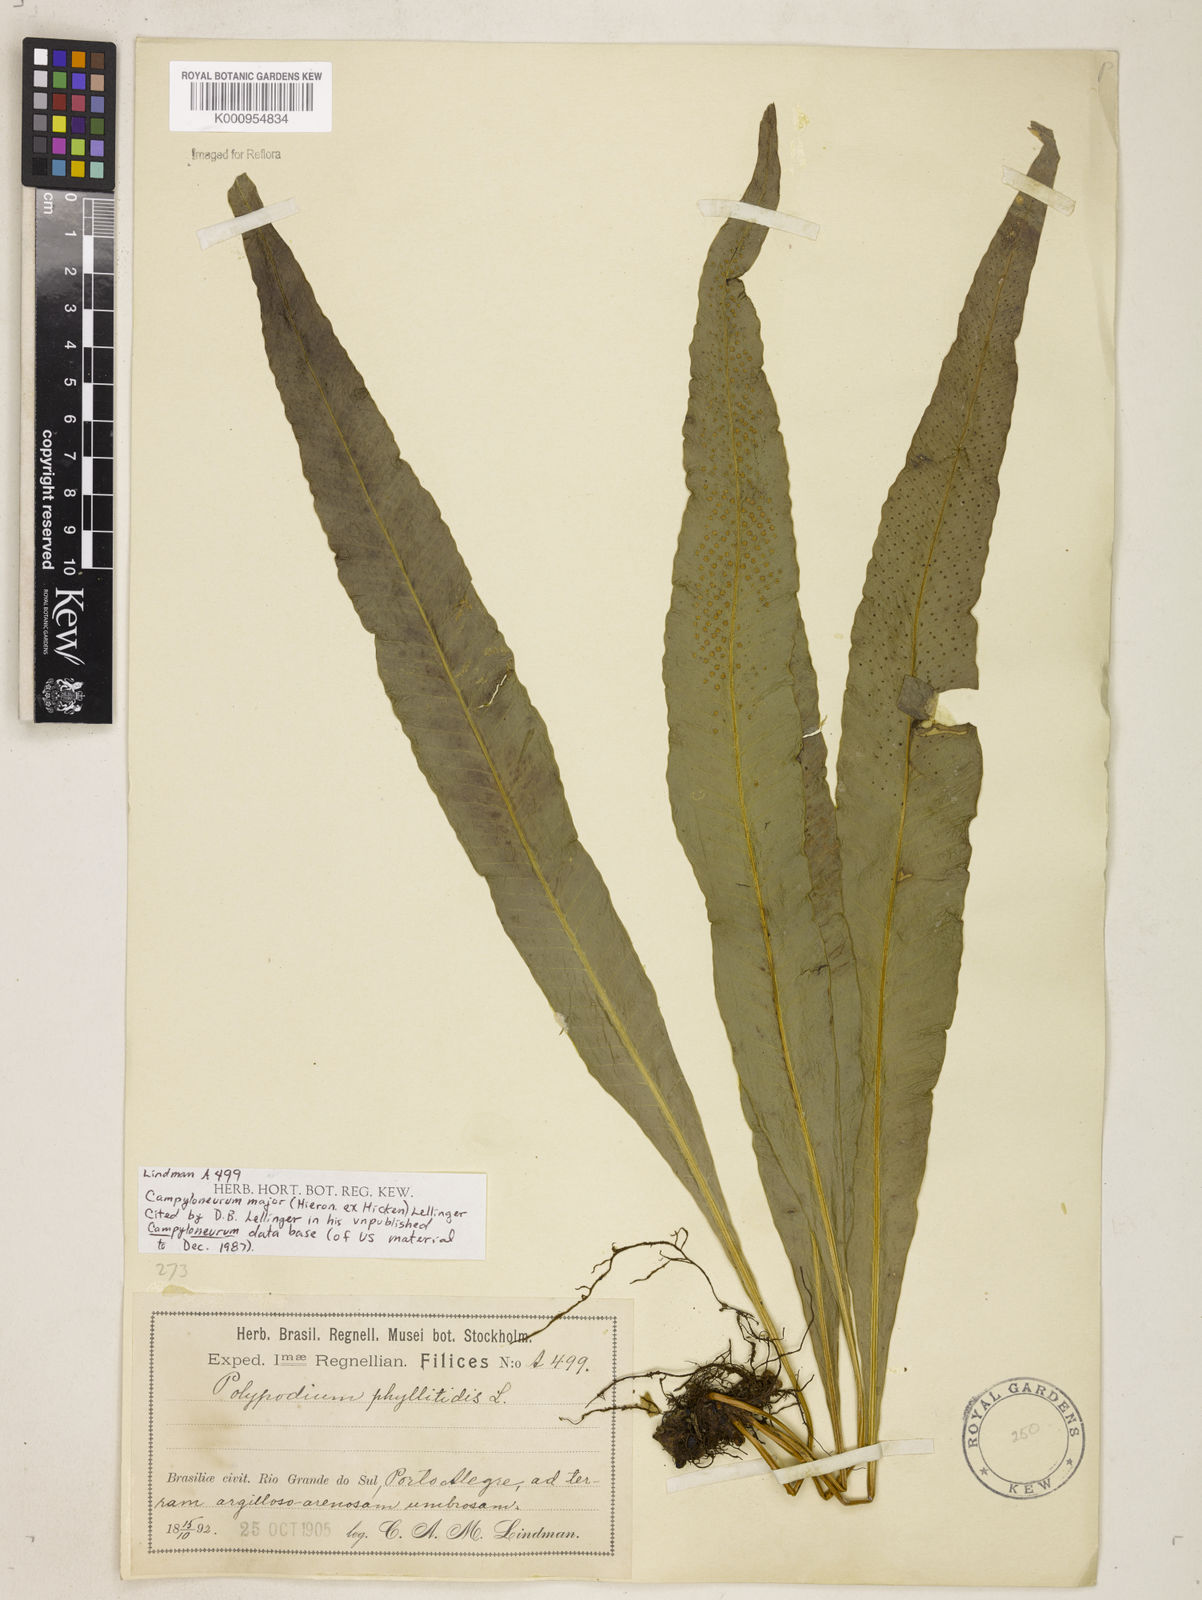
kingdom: Plantae
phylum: Tracheophyta
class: Polypodiopsida
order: Polypodiales
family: Polypodiaceae
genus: Campyloneurum
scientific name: Campyloneurum majus
